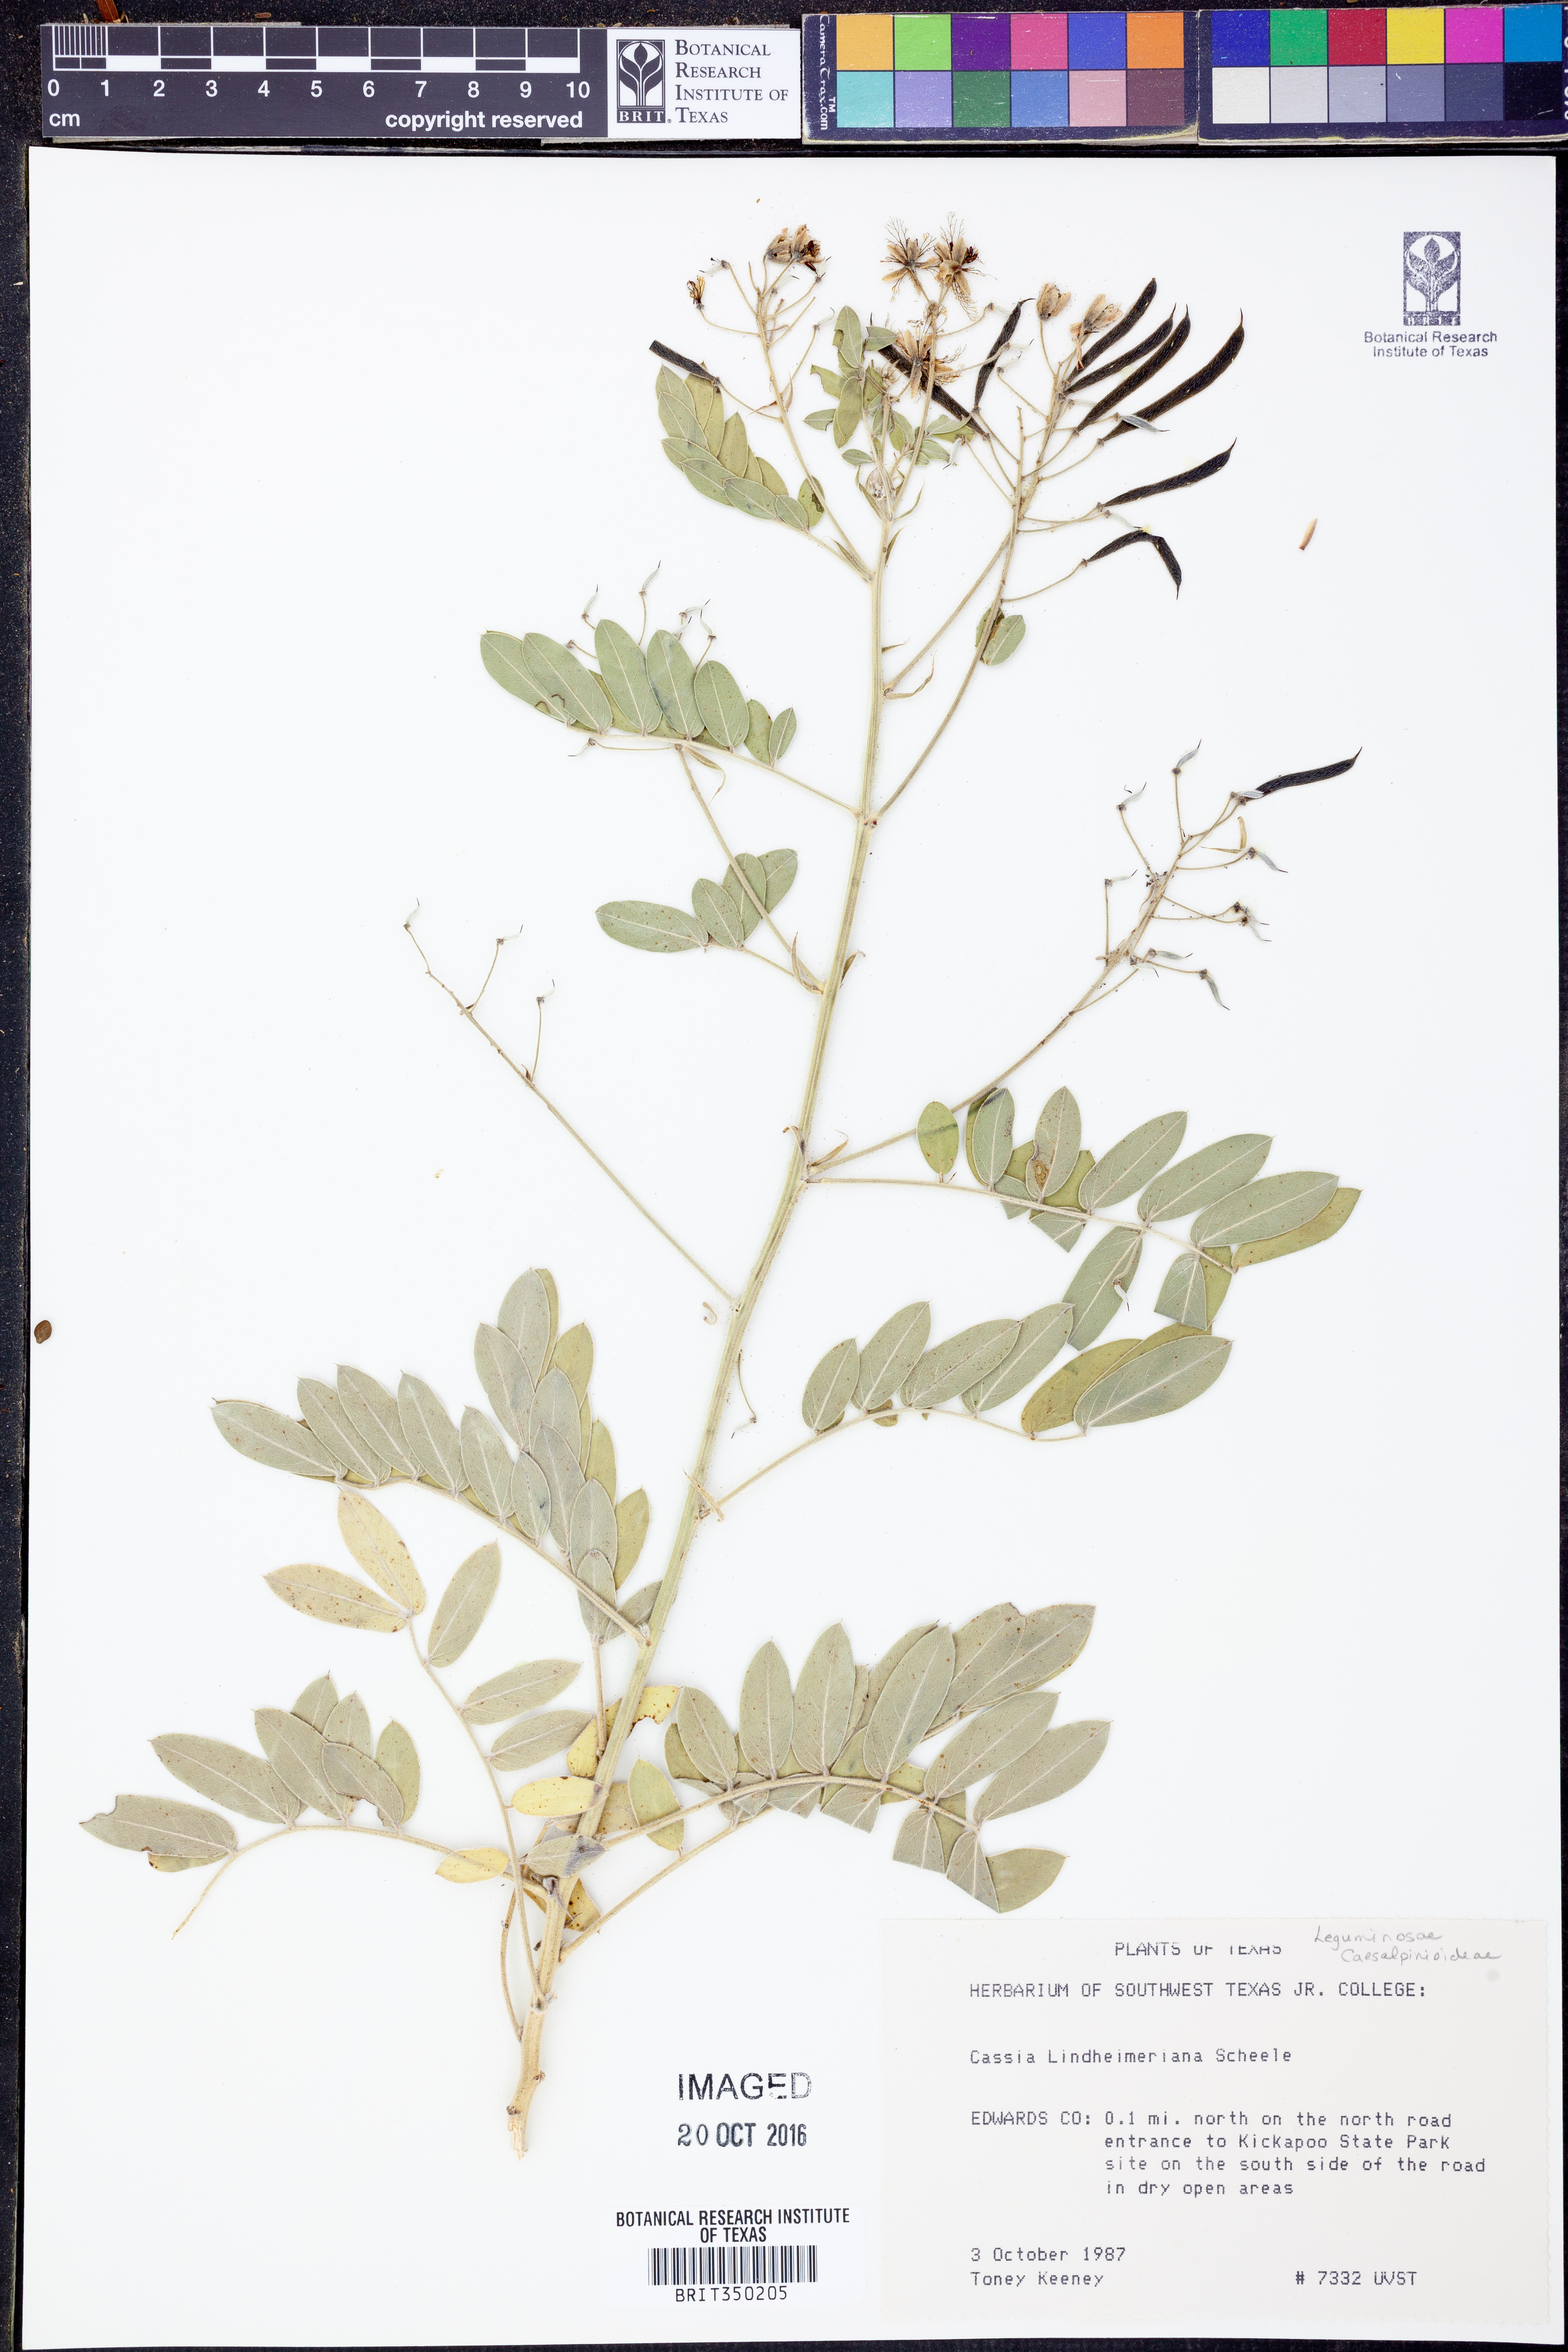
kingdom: Plantae
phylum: Tracheophyta
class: Magnoliopsida
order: Fabales
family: Fabaceae
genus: Senna
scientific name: Senna lindheimeriana
